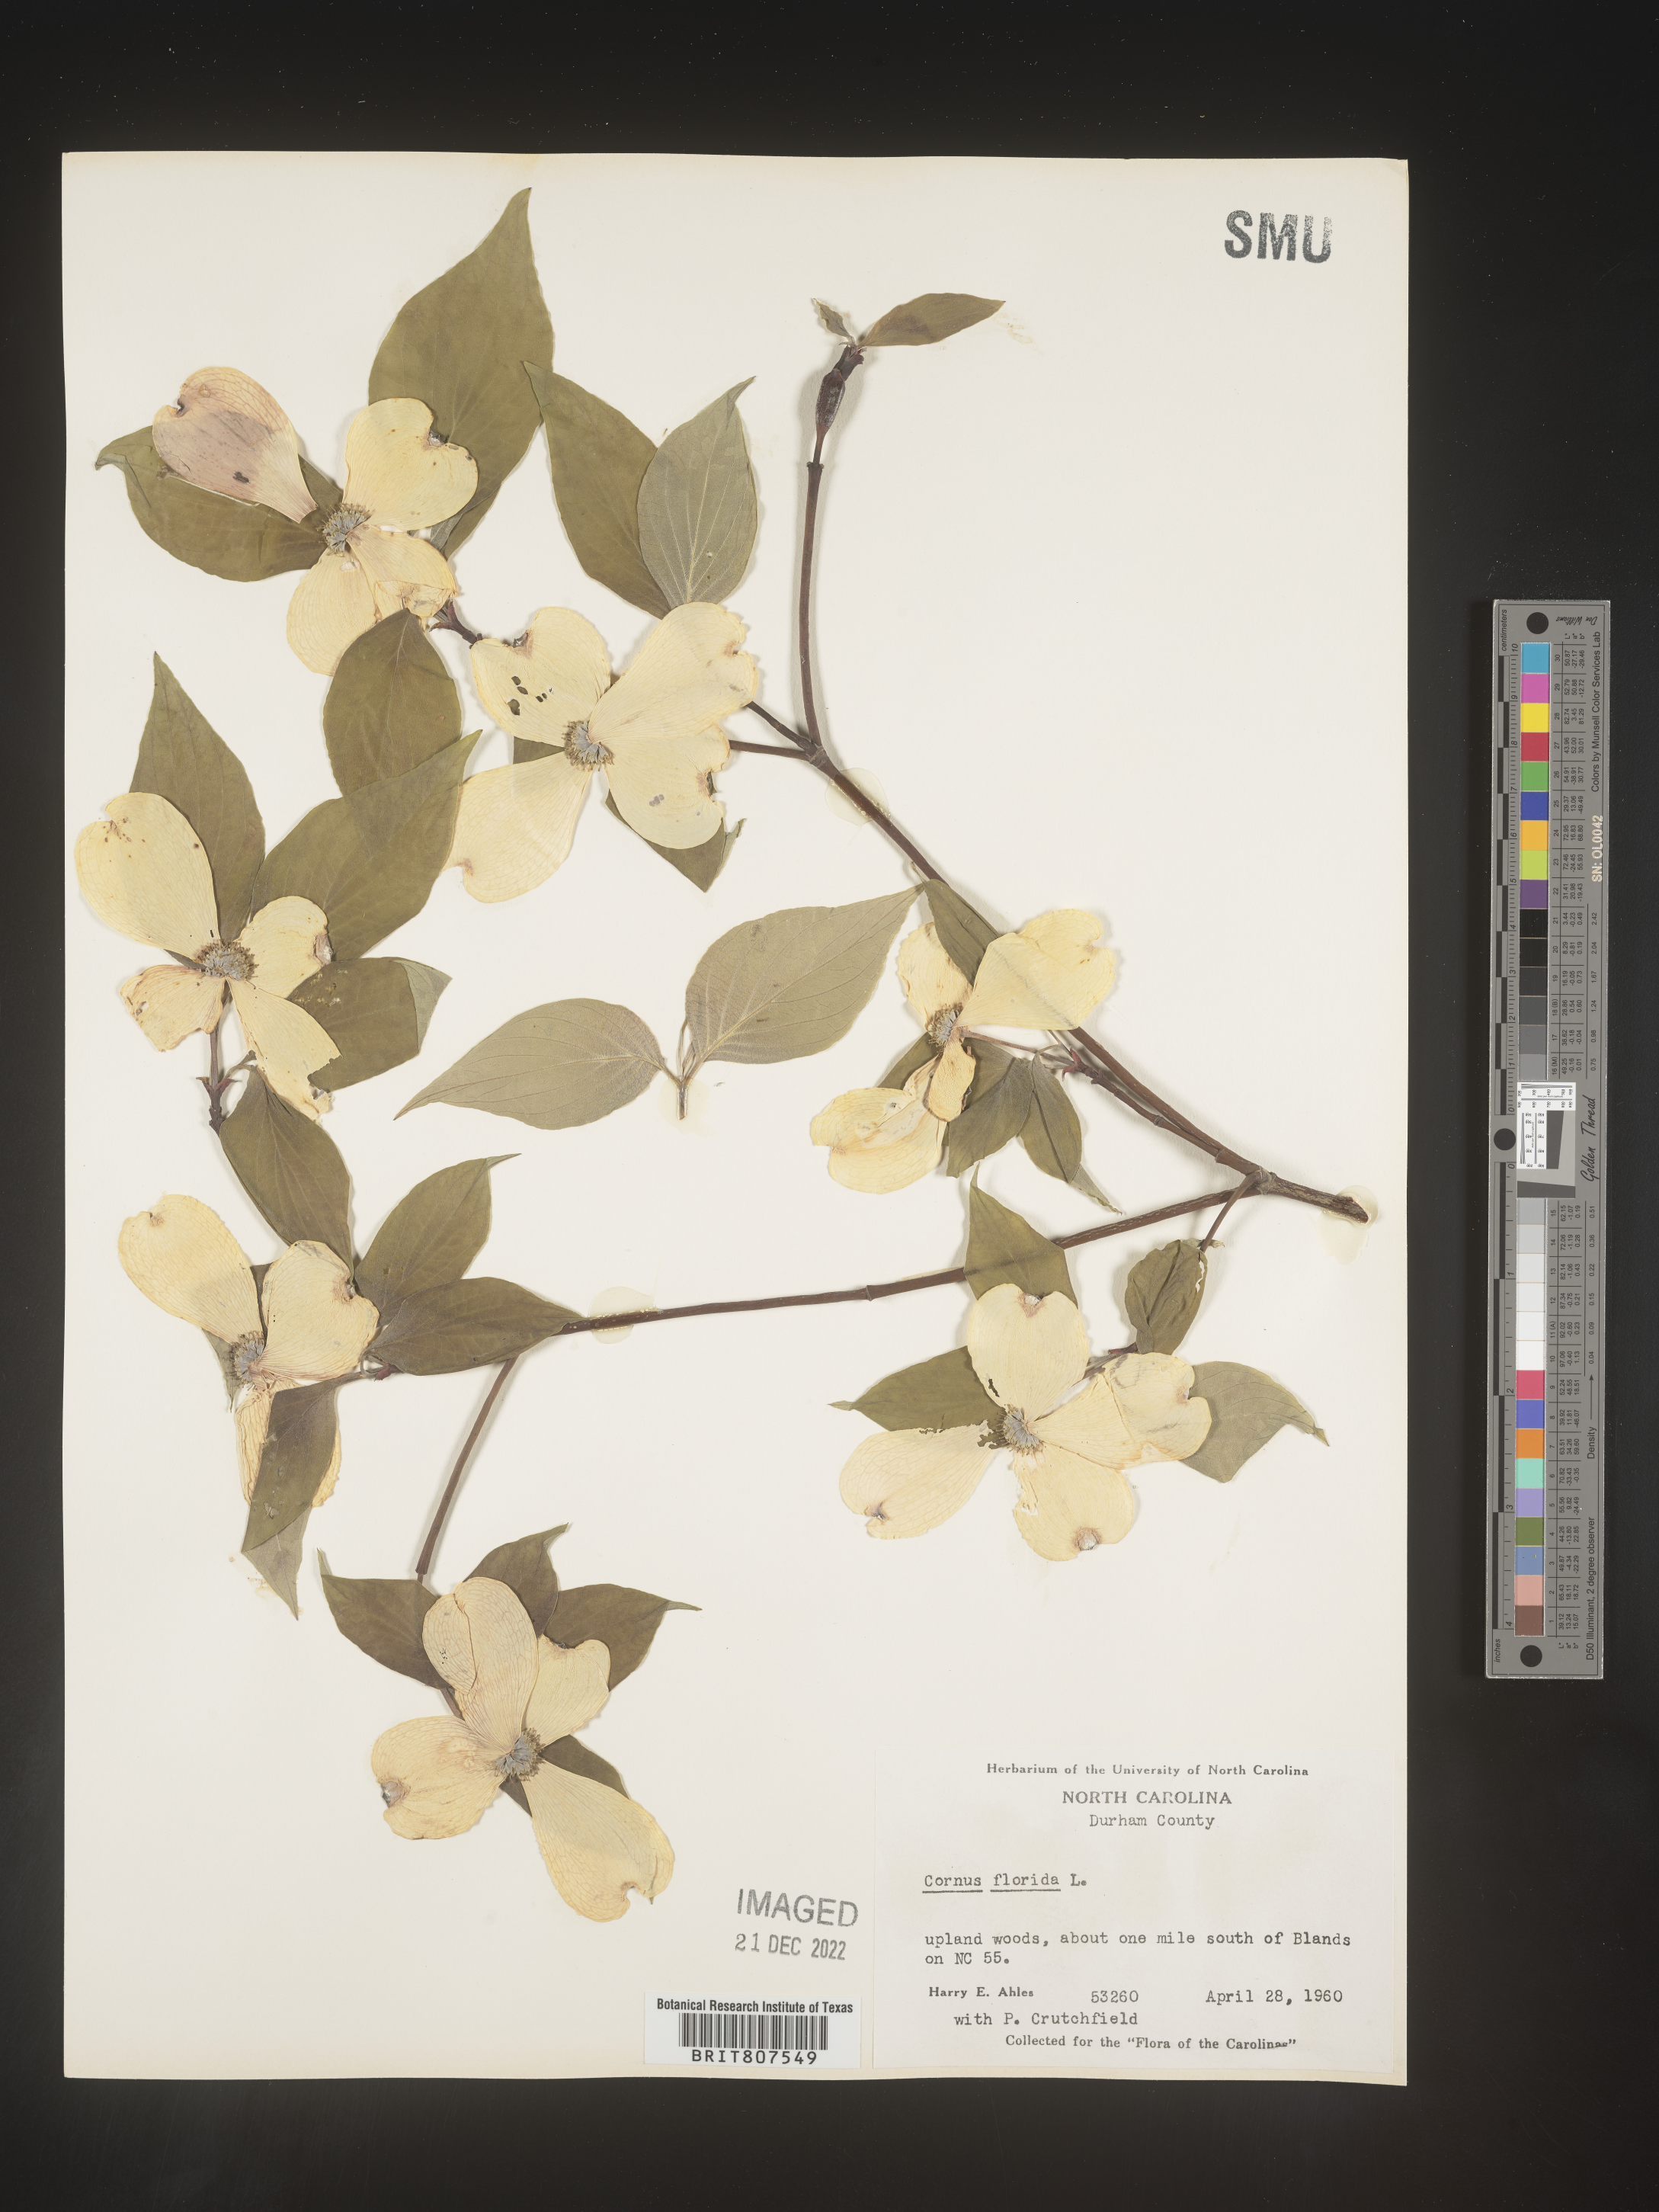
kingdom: Plantae
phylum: Tracheophyta
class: Magnoliopsida
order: Cornales
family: Cornaceae
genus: Cornus
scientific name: Cornus florida
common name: Flowering dogwood
